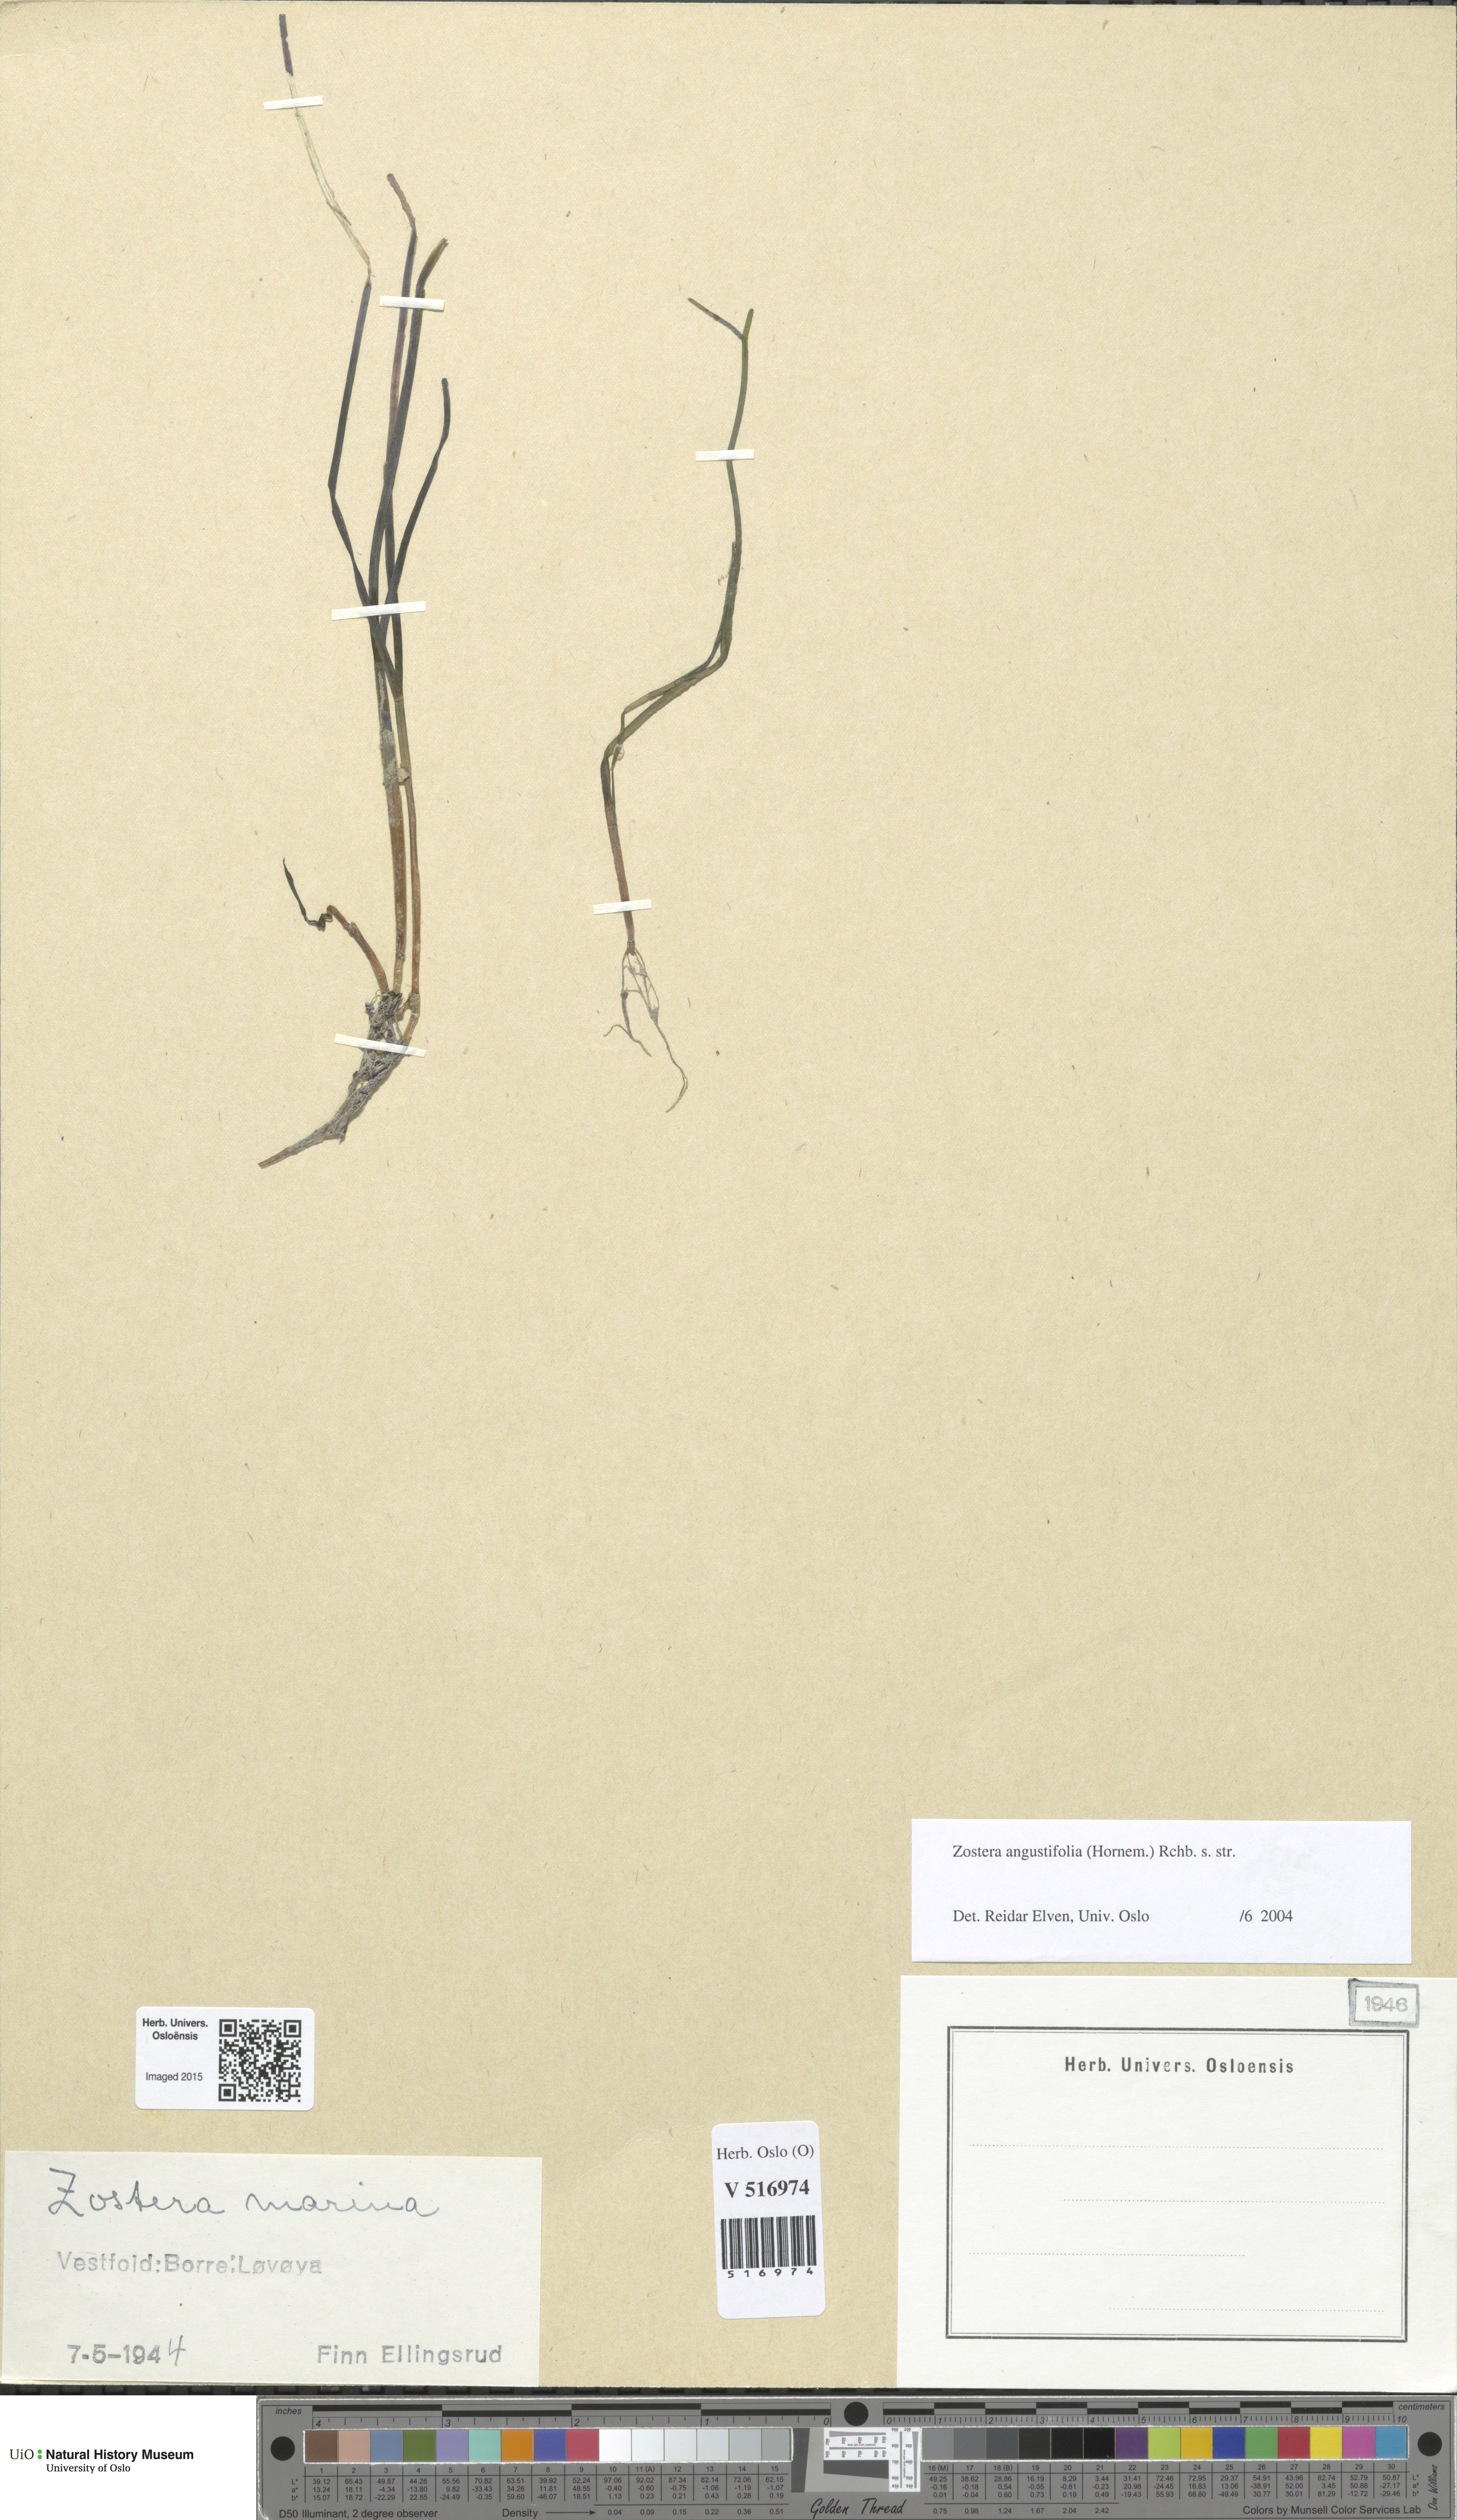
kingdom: Plantae
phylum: Tracheophyta
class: Liliopsida
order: Alismatales
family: Zosteraceae
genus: Zostera
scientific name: Zostera angustifolia
